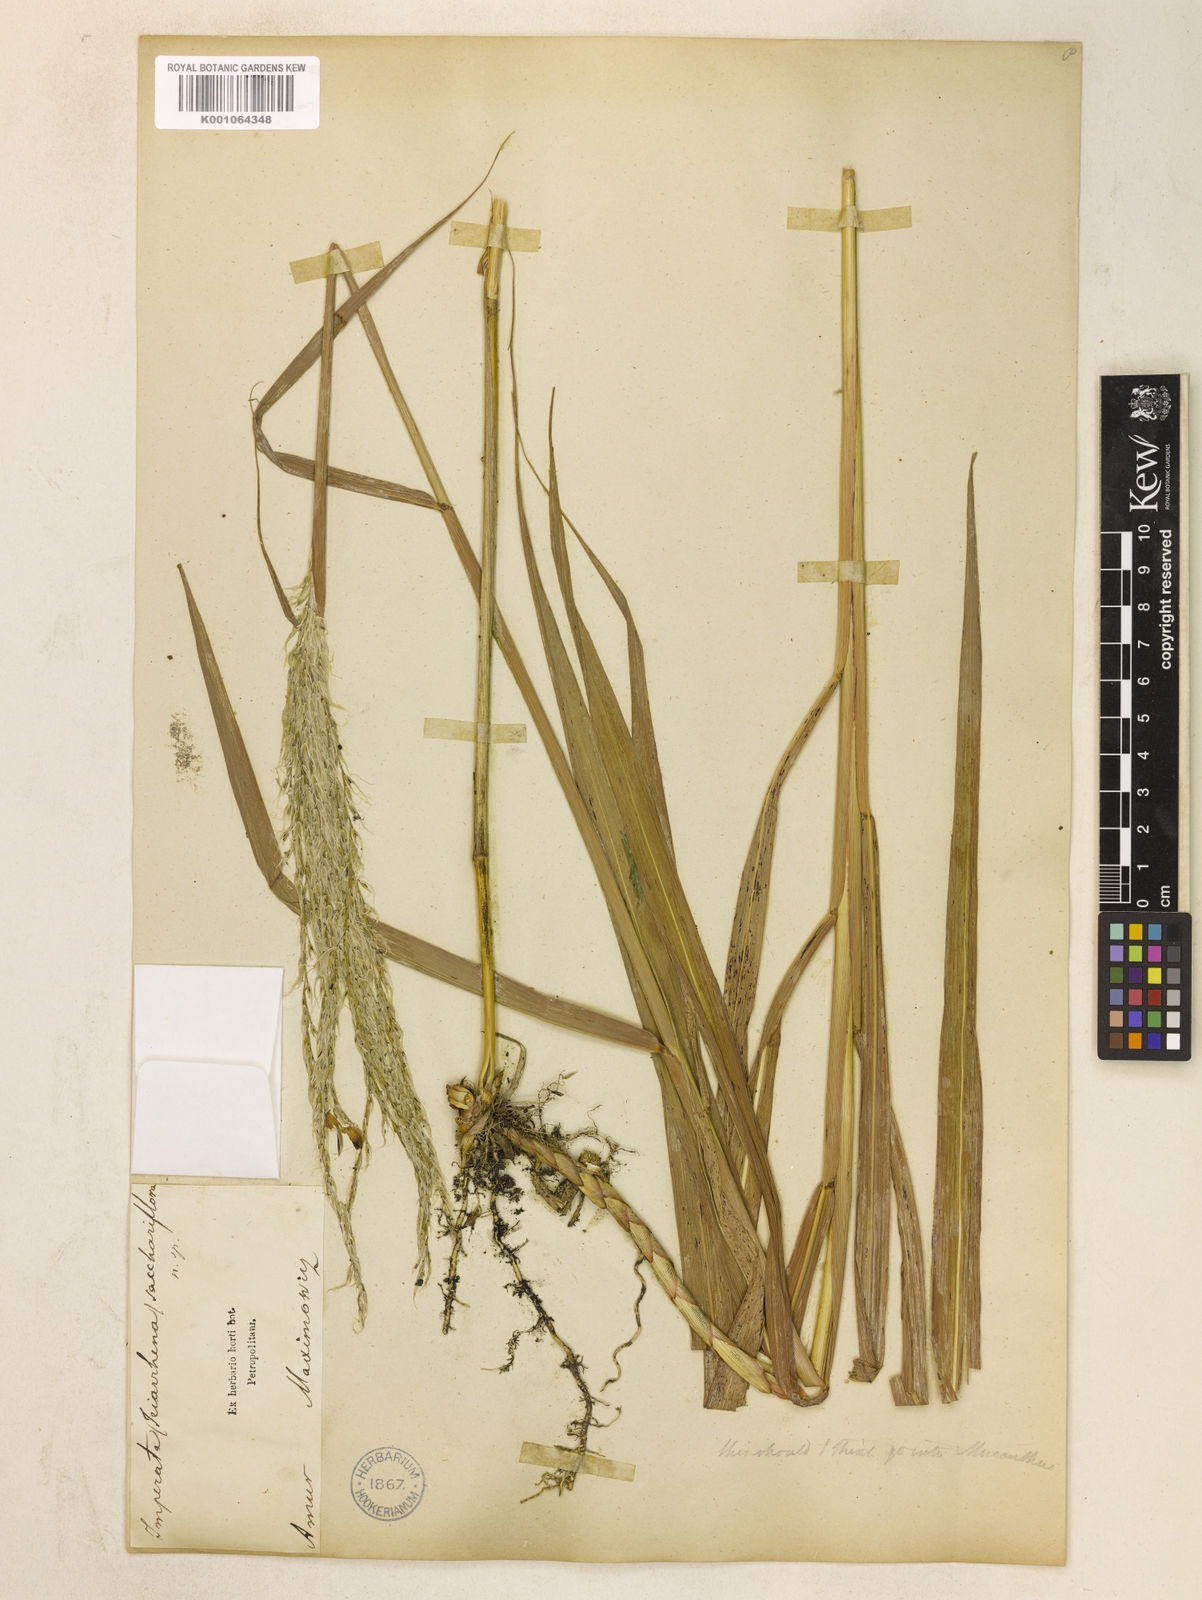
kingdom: Plantae
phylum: Tracheophyta
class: Liliopsida
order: Poales
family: Poaceae
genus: Miscanthus
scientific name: Miscanthus
